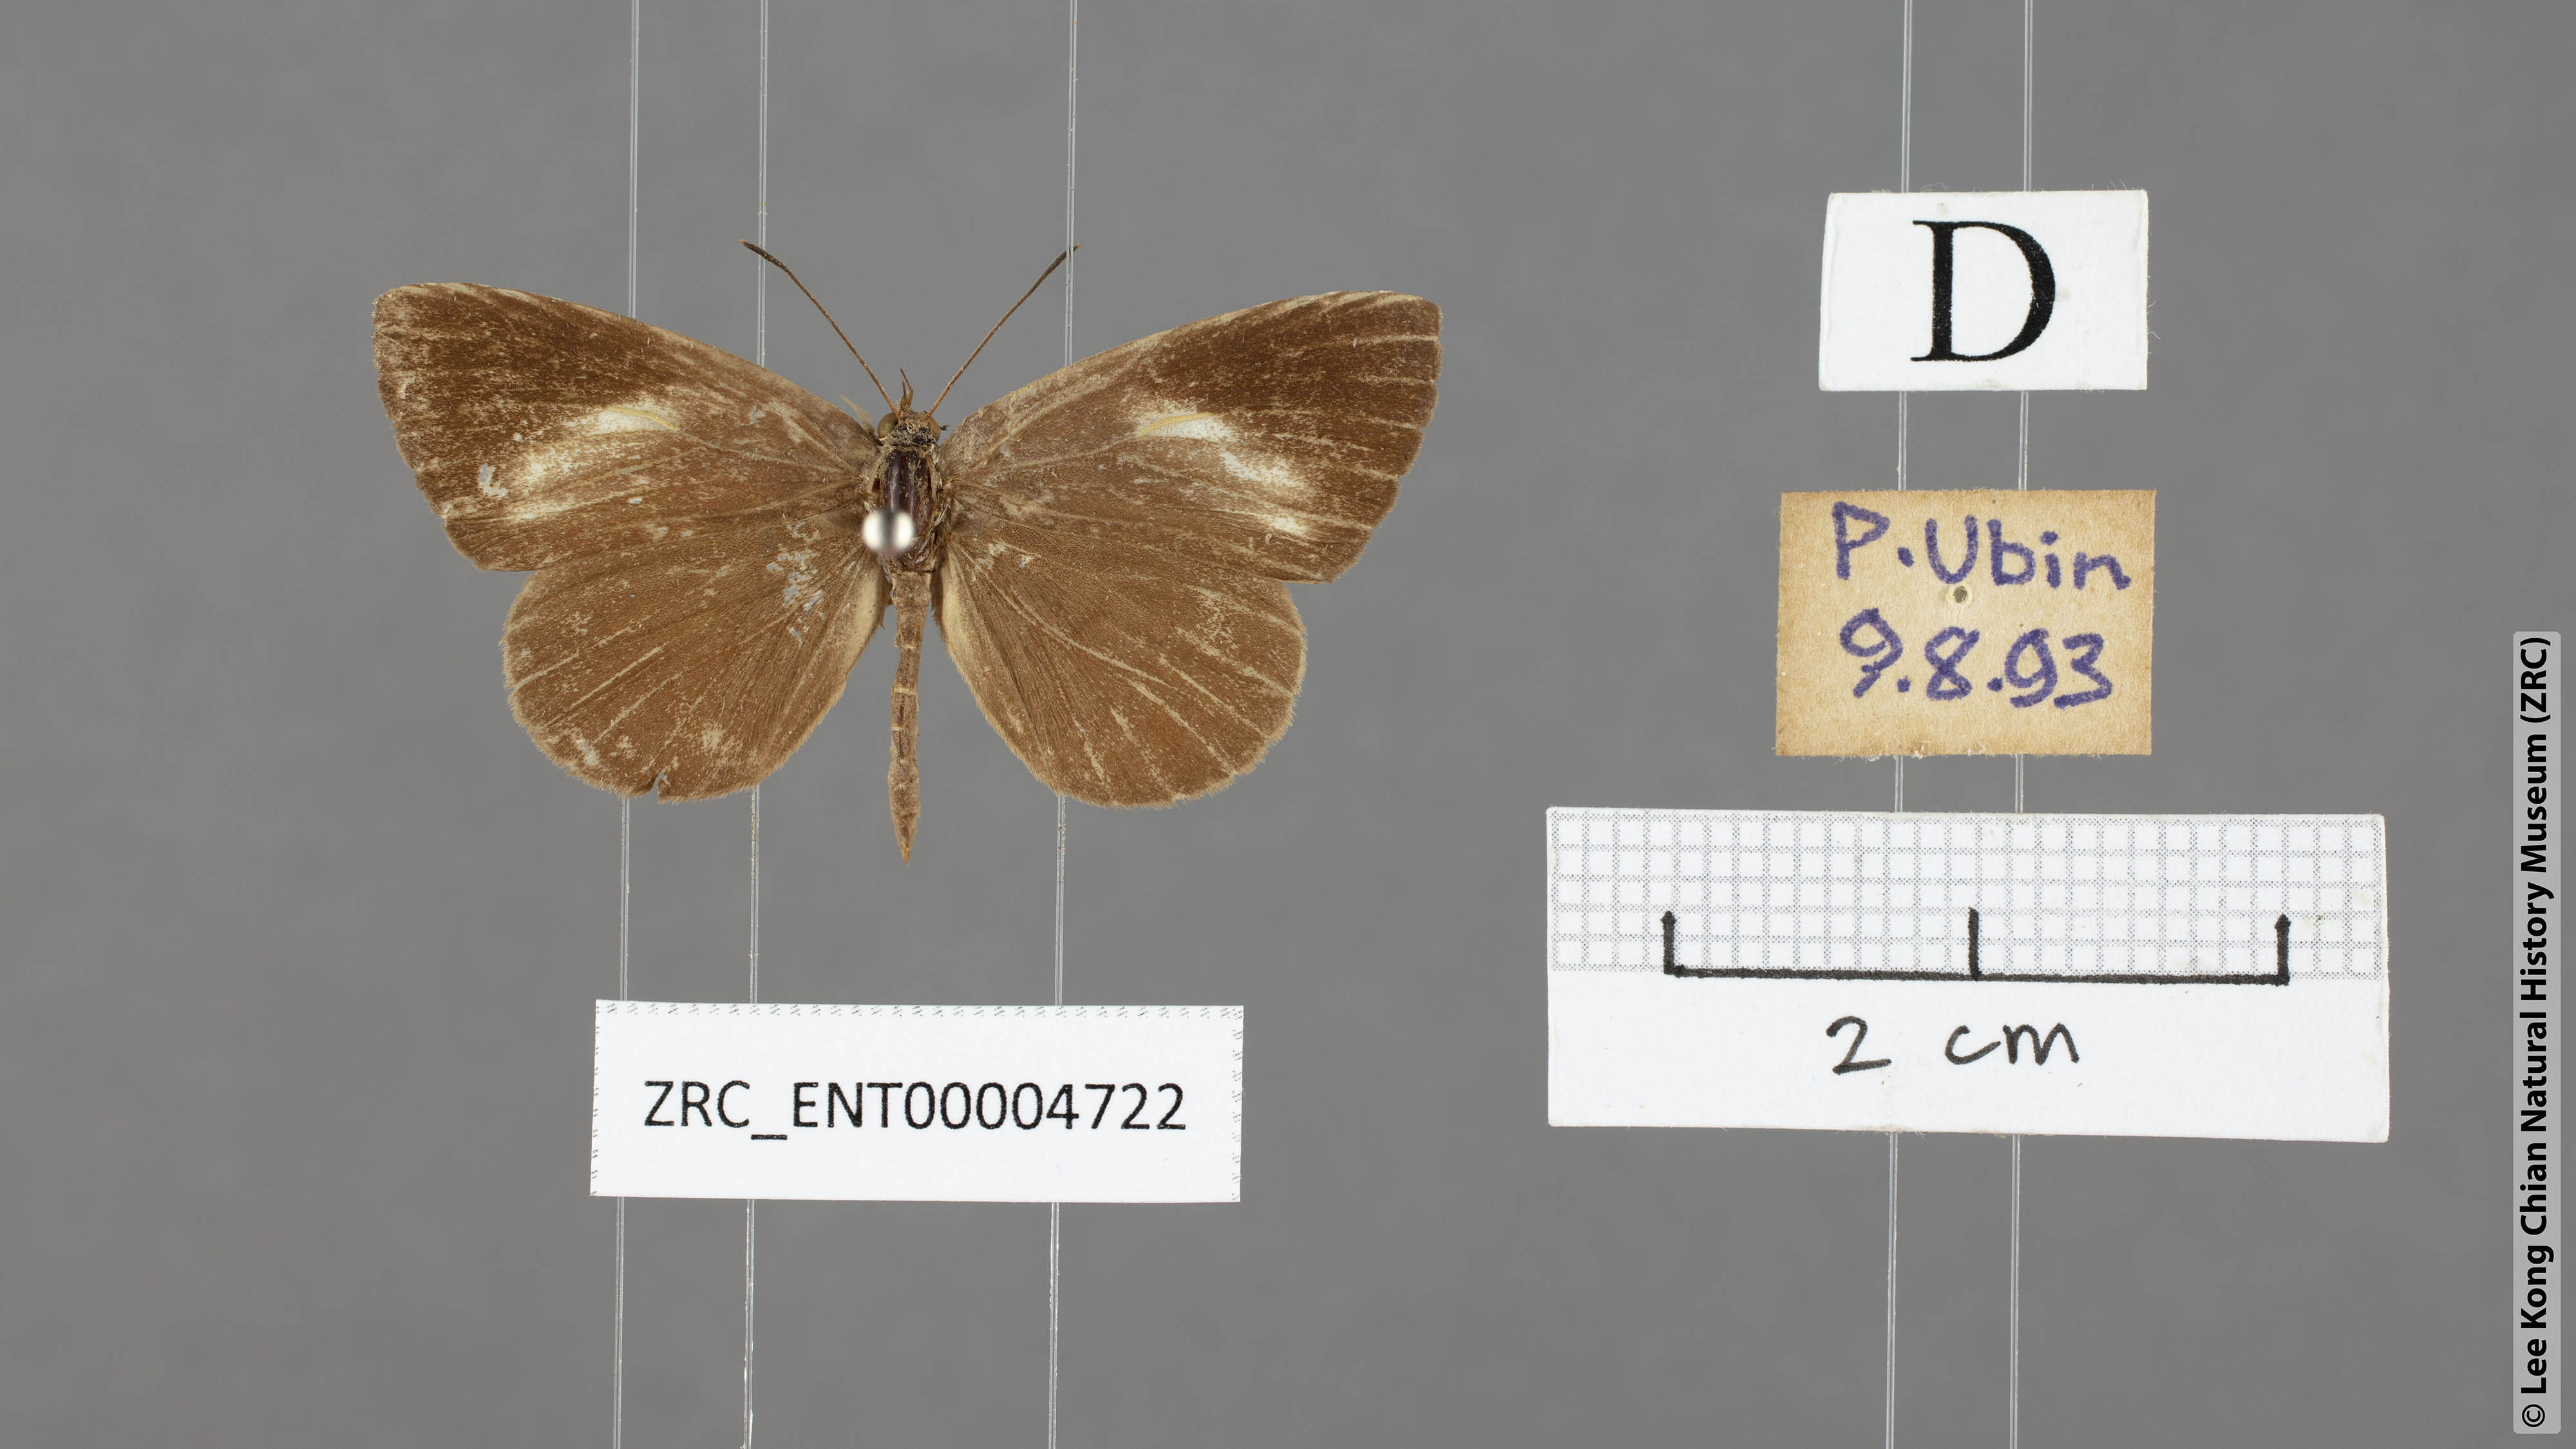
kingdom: Animalia
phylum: Arthropoda
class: Insecta
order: Lepidoptera
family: Lycaenidae
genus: Miletus
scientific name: Miletus biggsii
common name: Bigg's brownie
